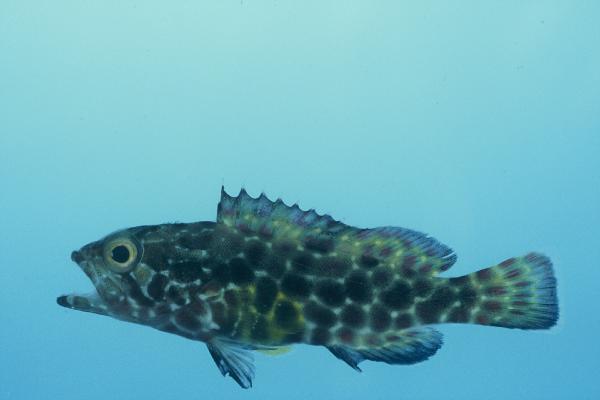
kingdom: Animalia
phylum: Chordata
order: Perciformes
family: Serranidae
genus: Epinephelus
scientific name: Epinephelus merra
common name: Honeycomb grouper
